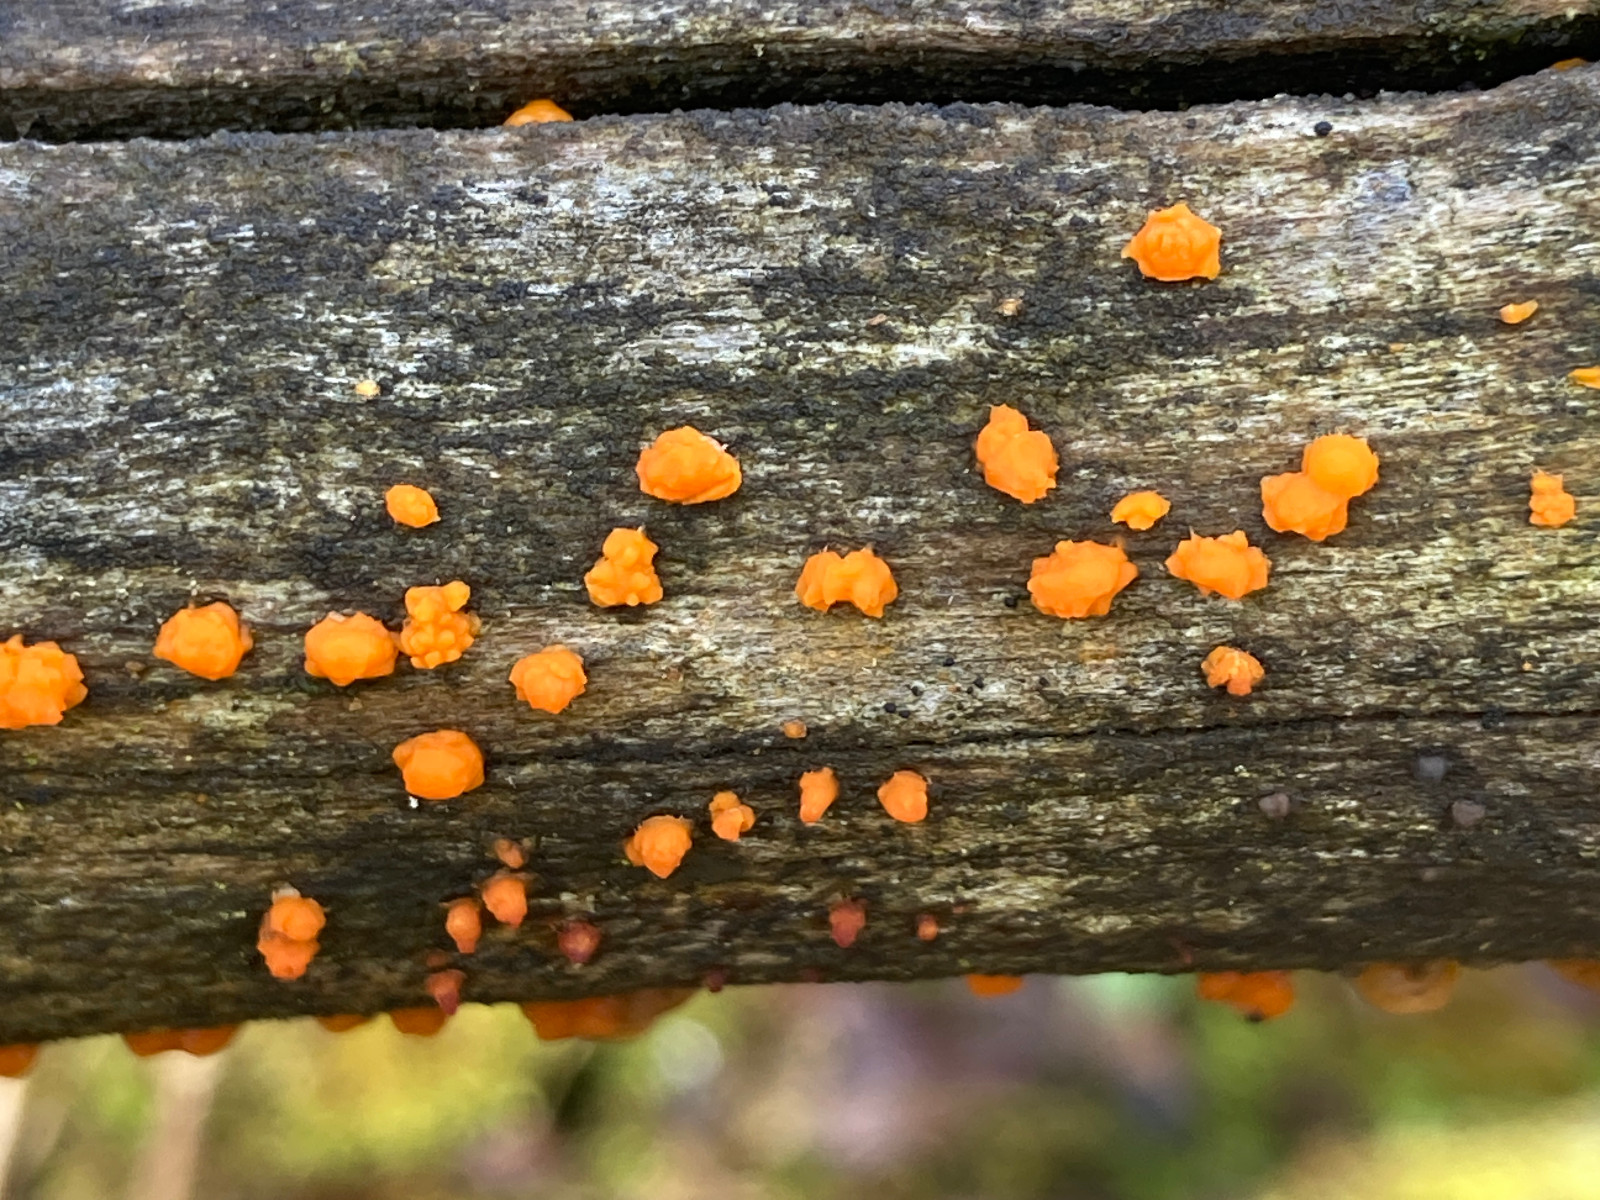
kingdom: Fungi
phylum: Basidiomycota
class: Dacrymycetes
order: Dacrymycetales
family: Dacrymycetaceae
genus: Dacrymyces
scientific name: Dacrymyces stillatus
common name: almindelig tåresvamp
